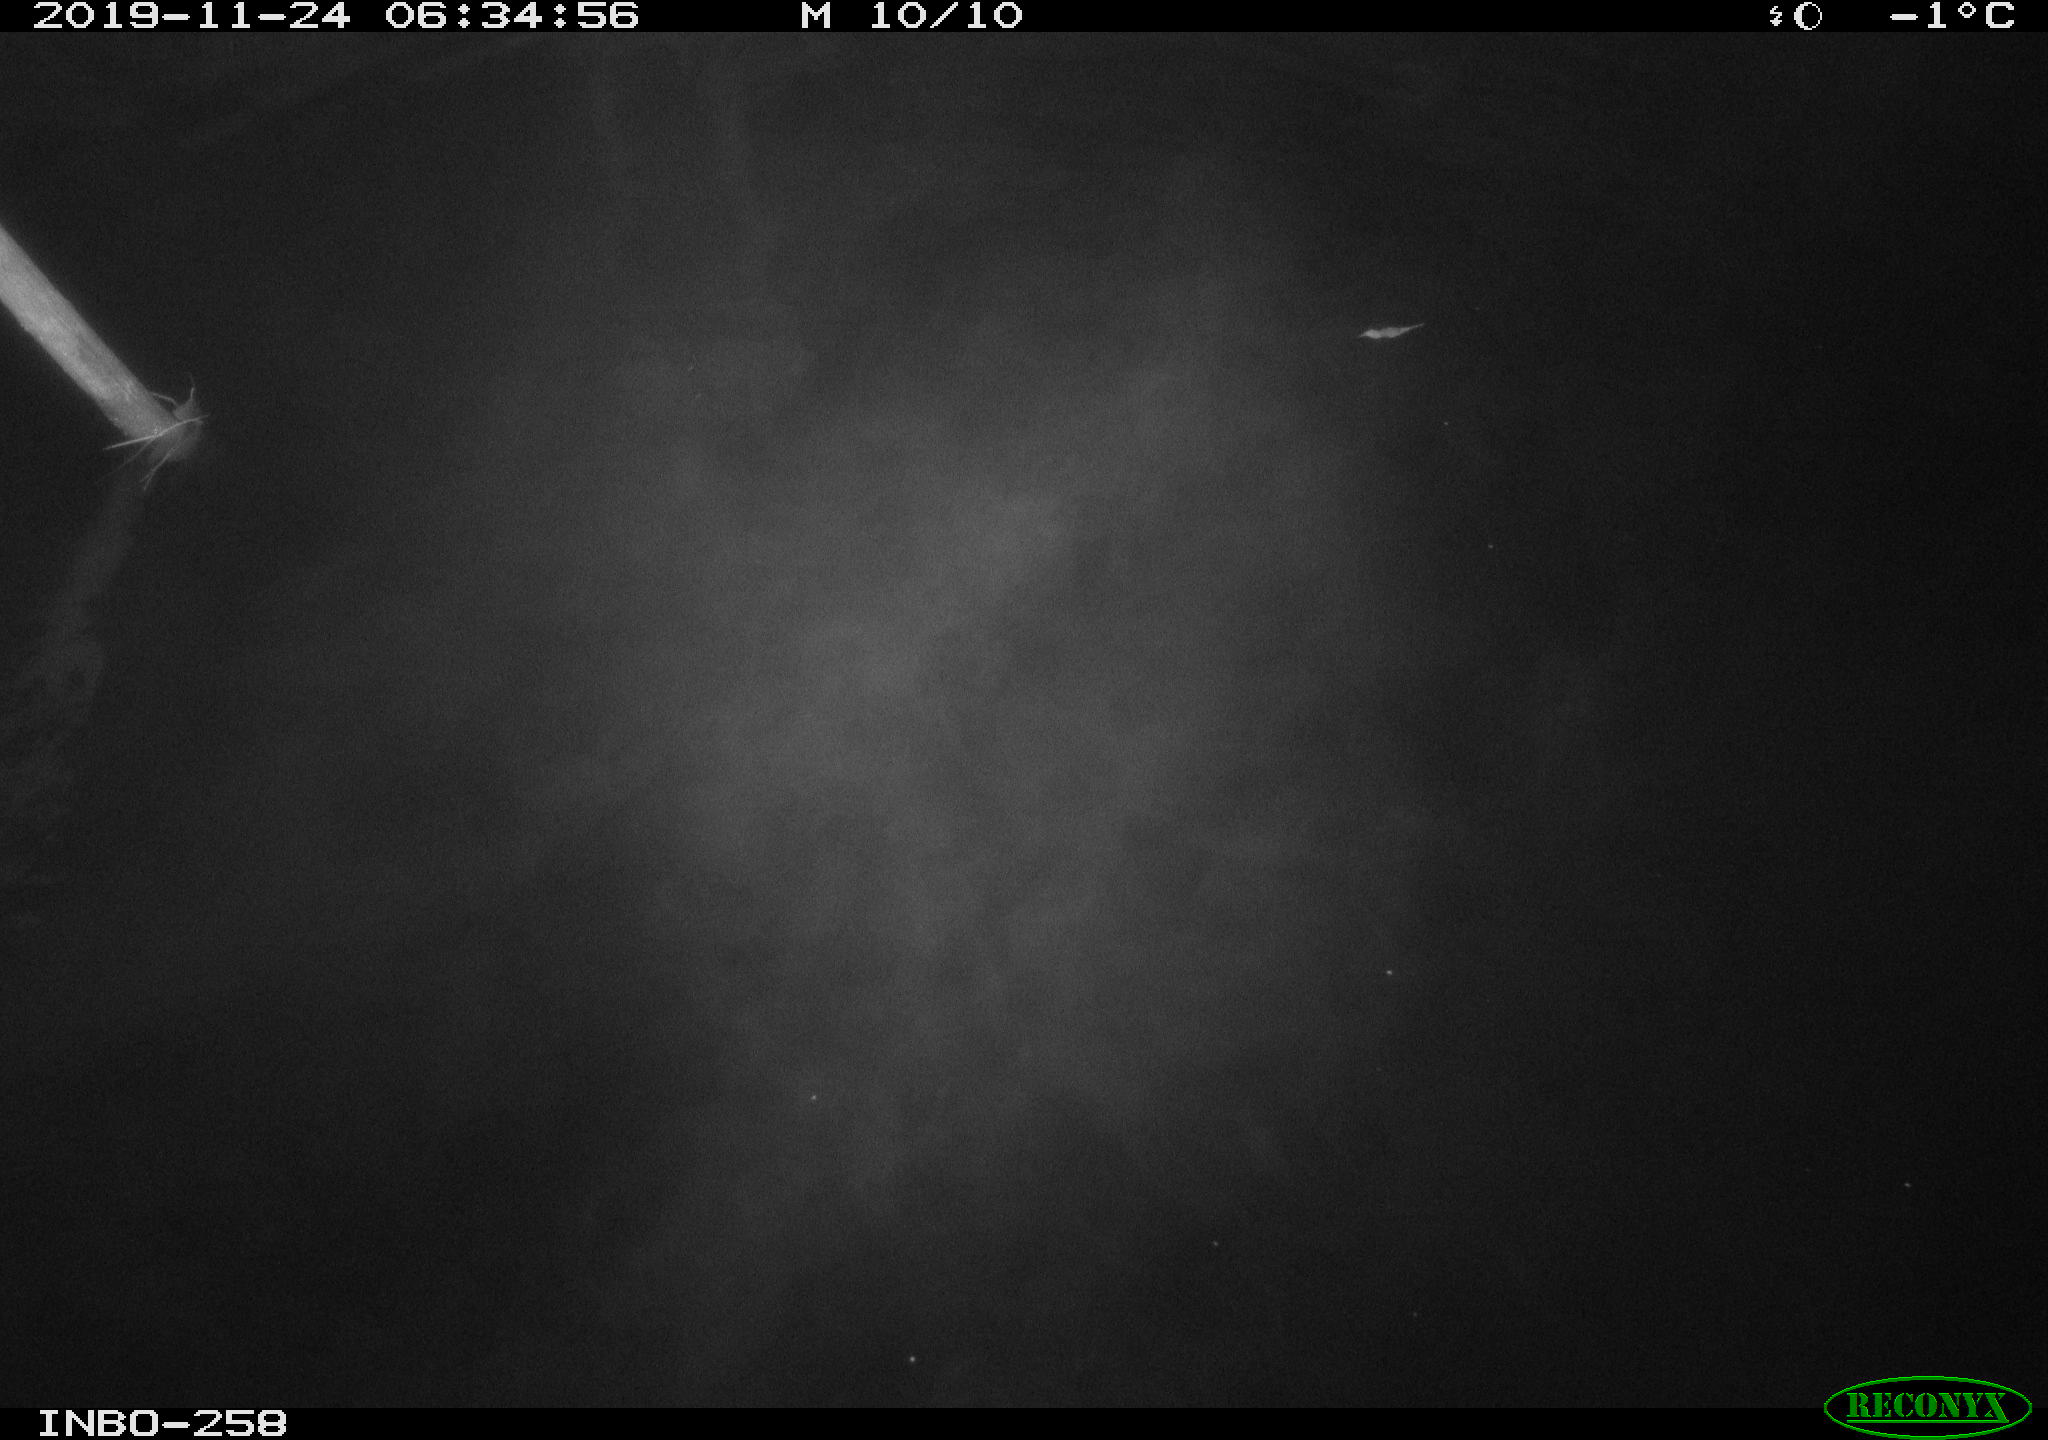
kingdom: Animalia
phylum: Chordata
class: Aves
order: Anseriformes
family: Anatidae
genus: Anas
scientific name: Anas platyrhynchos
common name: Mallard
